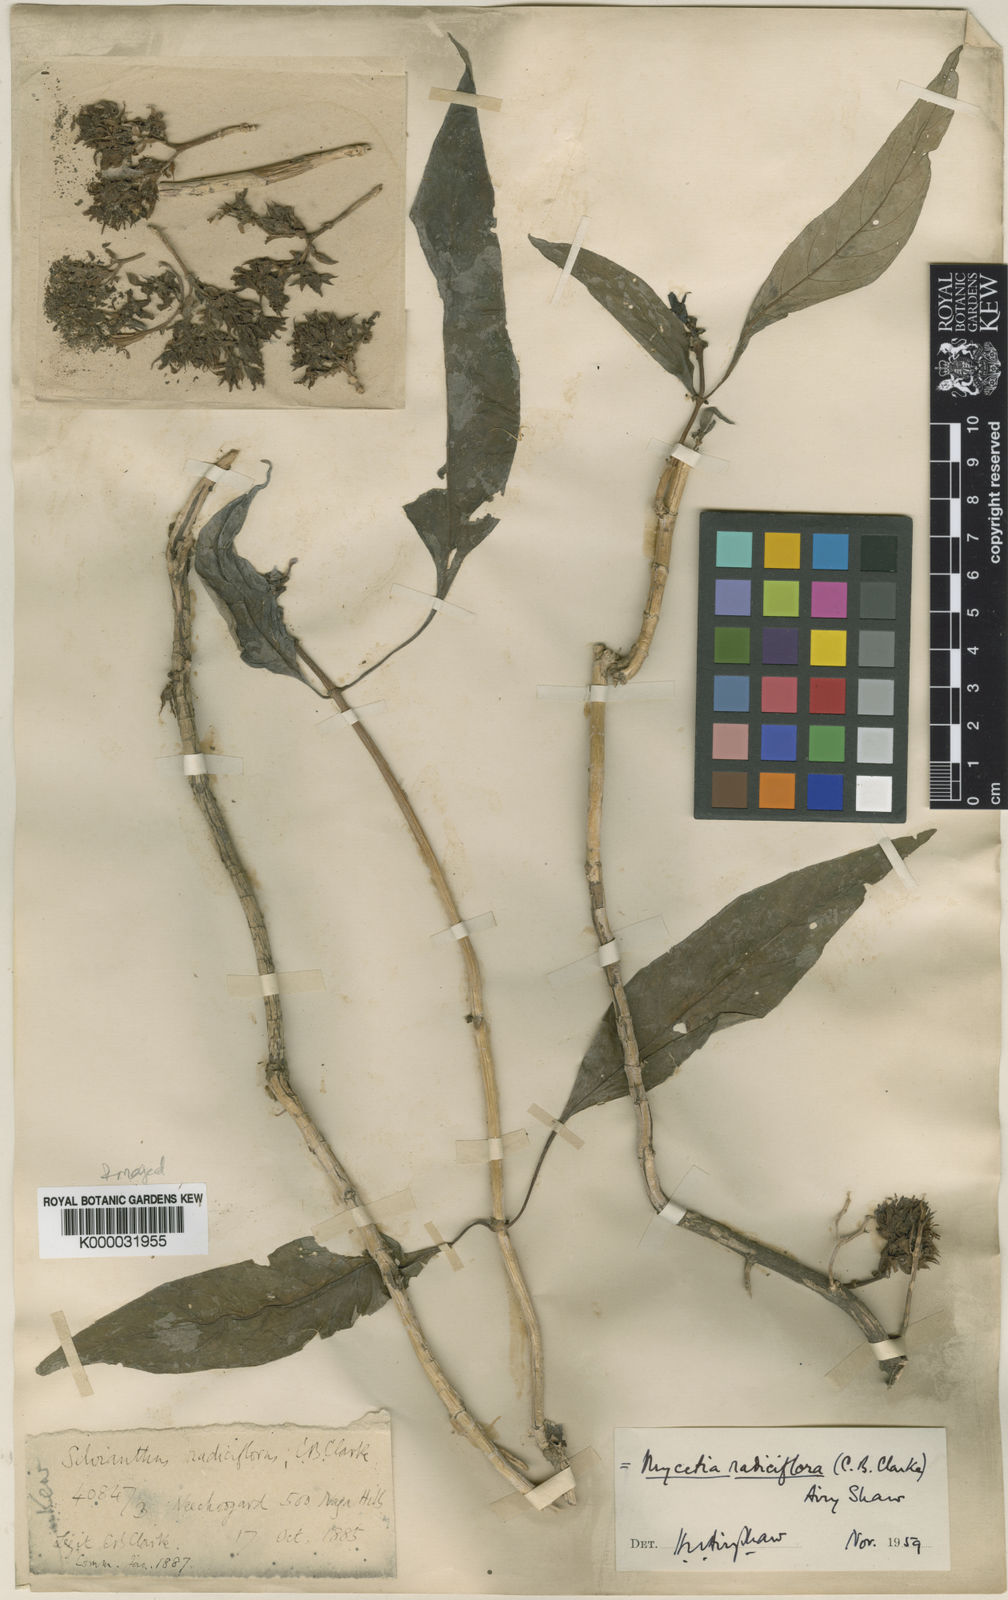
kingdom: Plantae
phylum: Tracheophyta
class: Magnoliopsida
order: Gentianales
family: Rubiaceae
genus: Mycetia
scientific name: Mycetia radiciflora
